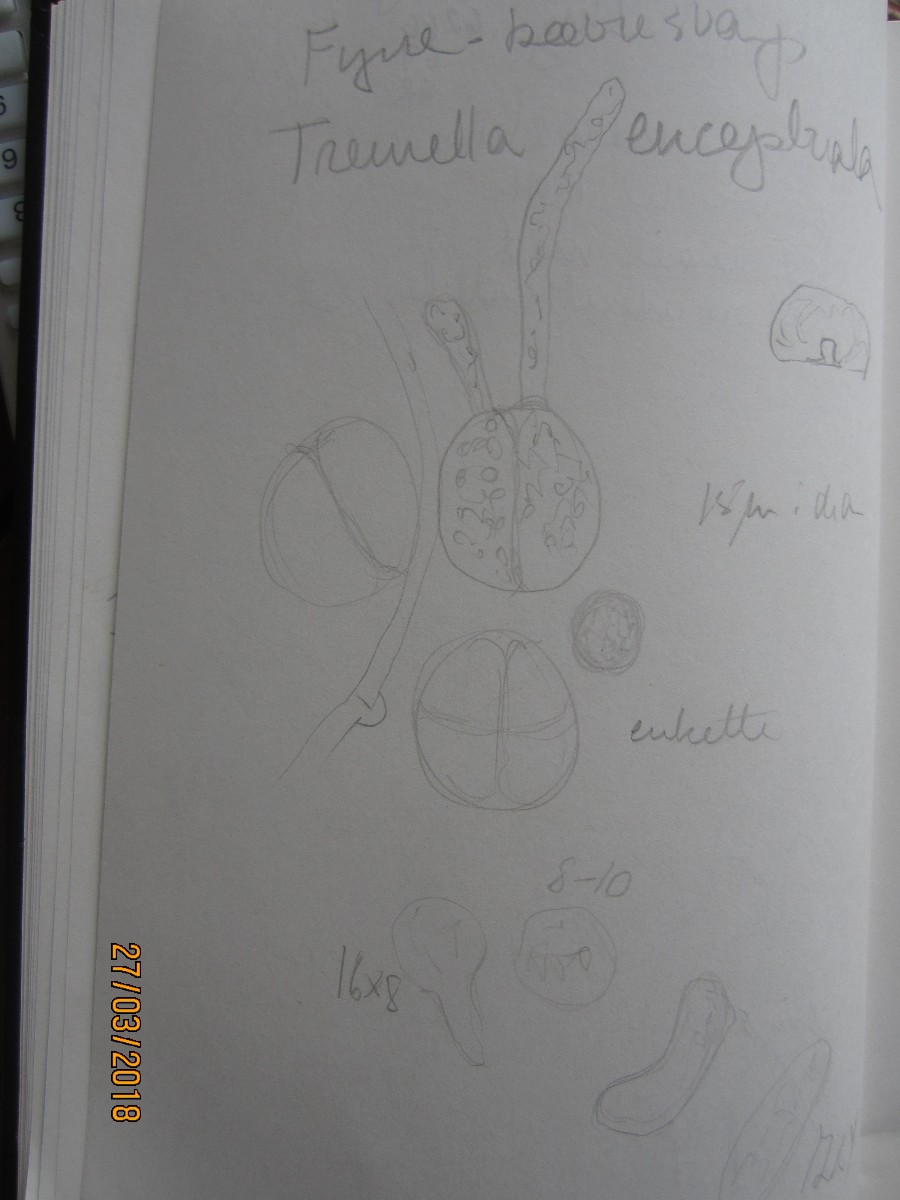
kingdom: Fungi
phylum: Basidiomycota
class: Tremellomycetes
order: Tremellales
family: Naemateliaceae
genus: Naematelia
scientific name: Naematelia encephala
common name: fyrre-bævresvamp
